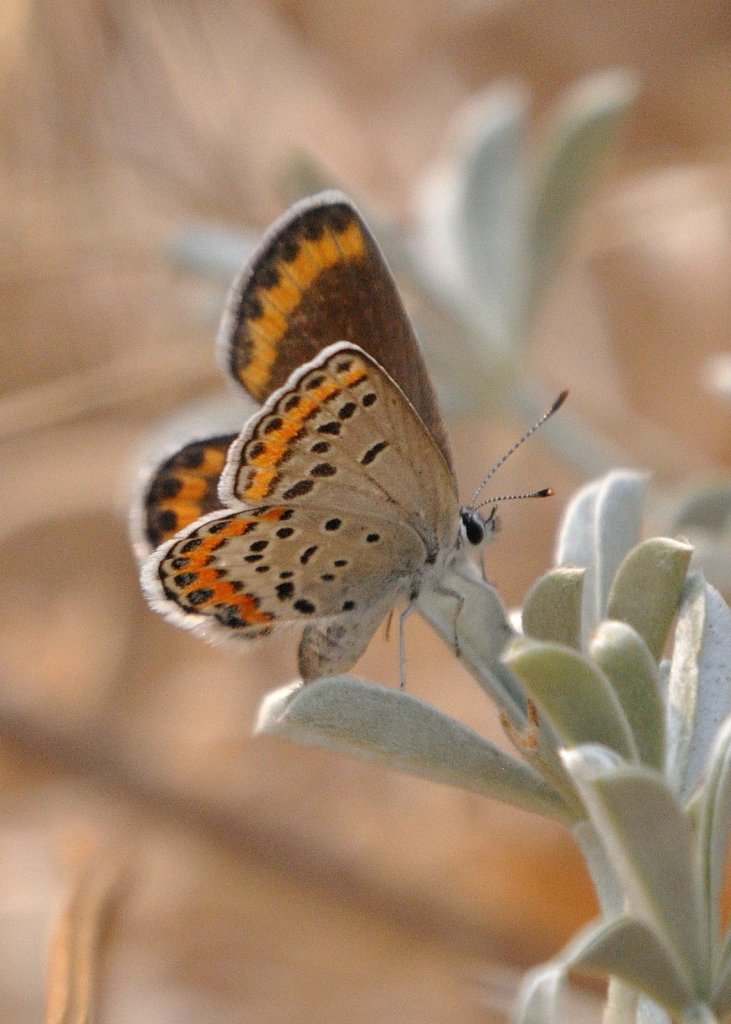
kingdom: Animalia
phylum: Arthropoda
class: Insecta
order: Lepidoptera
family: Lycaenidae
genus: Lycaeides
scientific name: Lycaeides melissa
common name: Melissa Blue
